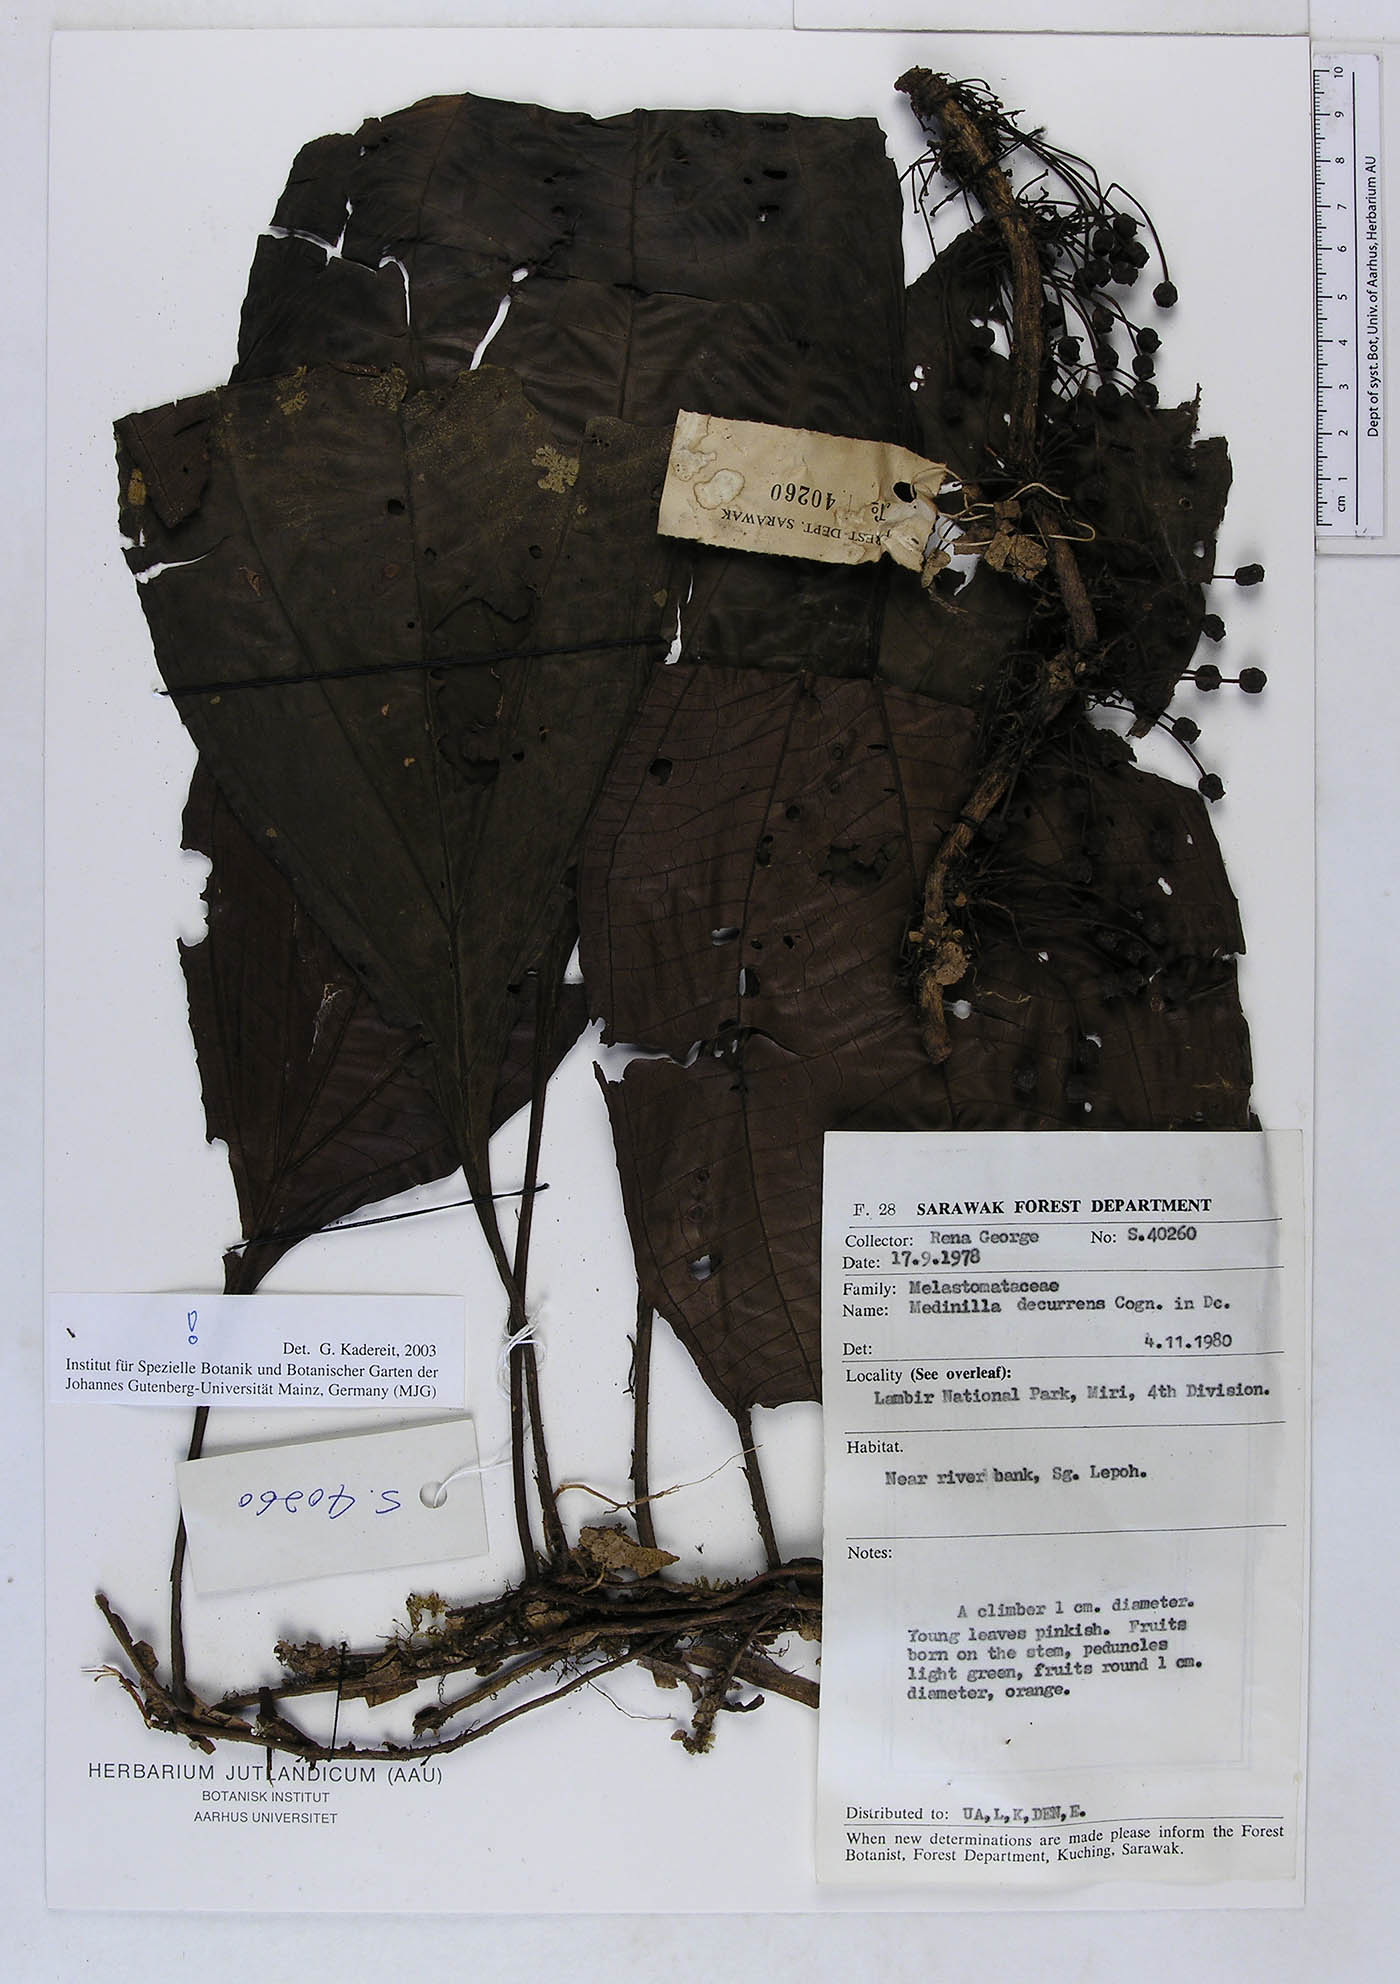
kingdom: Plantae
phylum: Tracheophyta
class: Magnoliopsida
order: Myrtales
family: Melastomataceae
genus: Heteroblemma
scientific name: Heteroblemma decurrens
